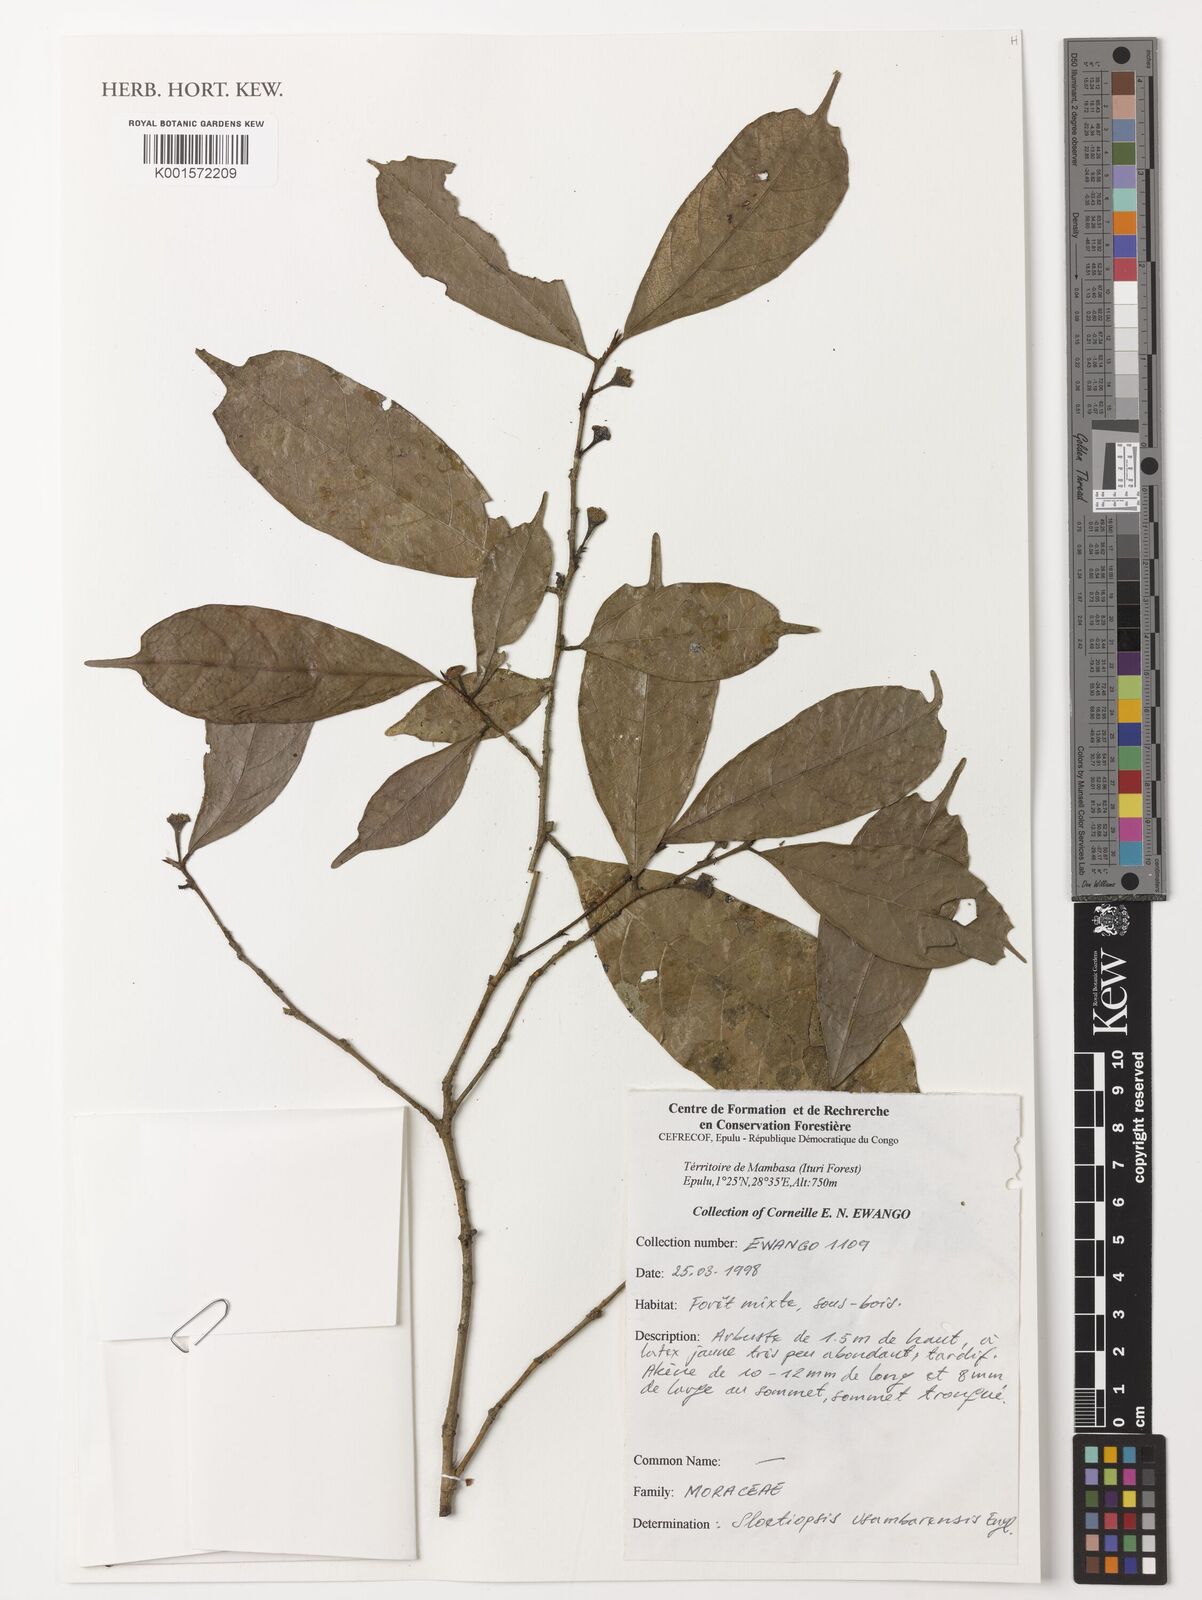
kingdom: Plantae
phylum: Tracheophyta
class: Magnoliopsida
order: Rosales
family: Moraceae
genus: Sloetiopsis
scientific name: Sloetiopsis usambarensis
